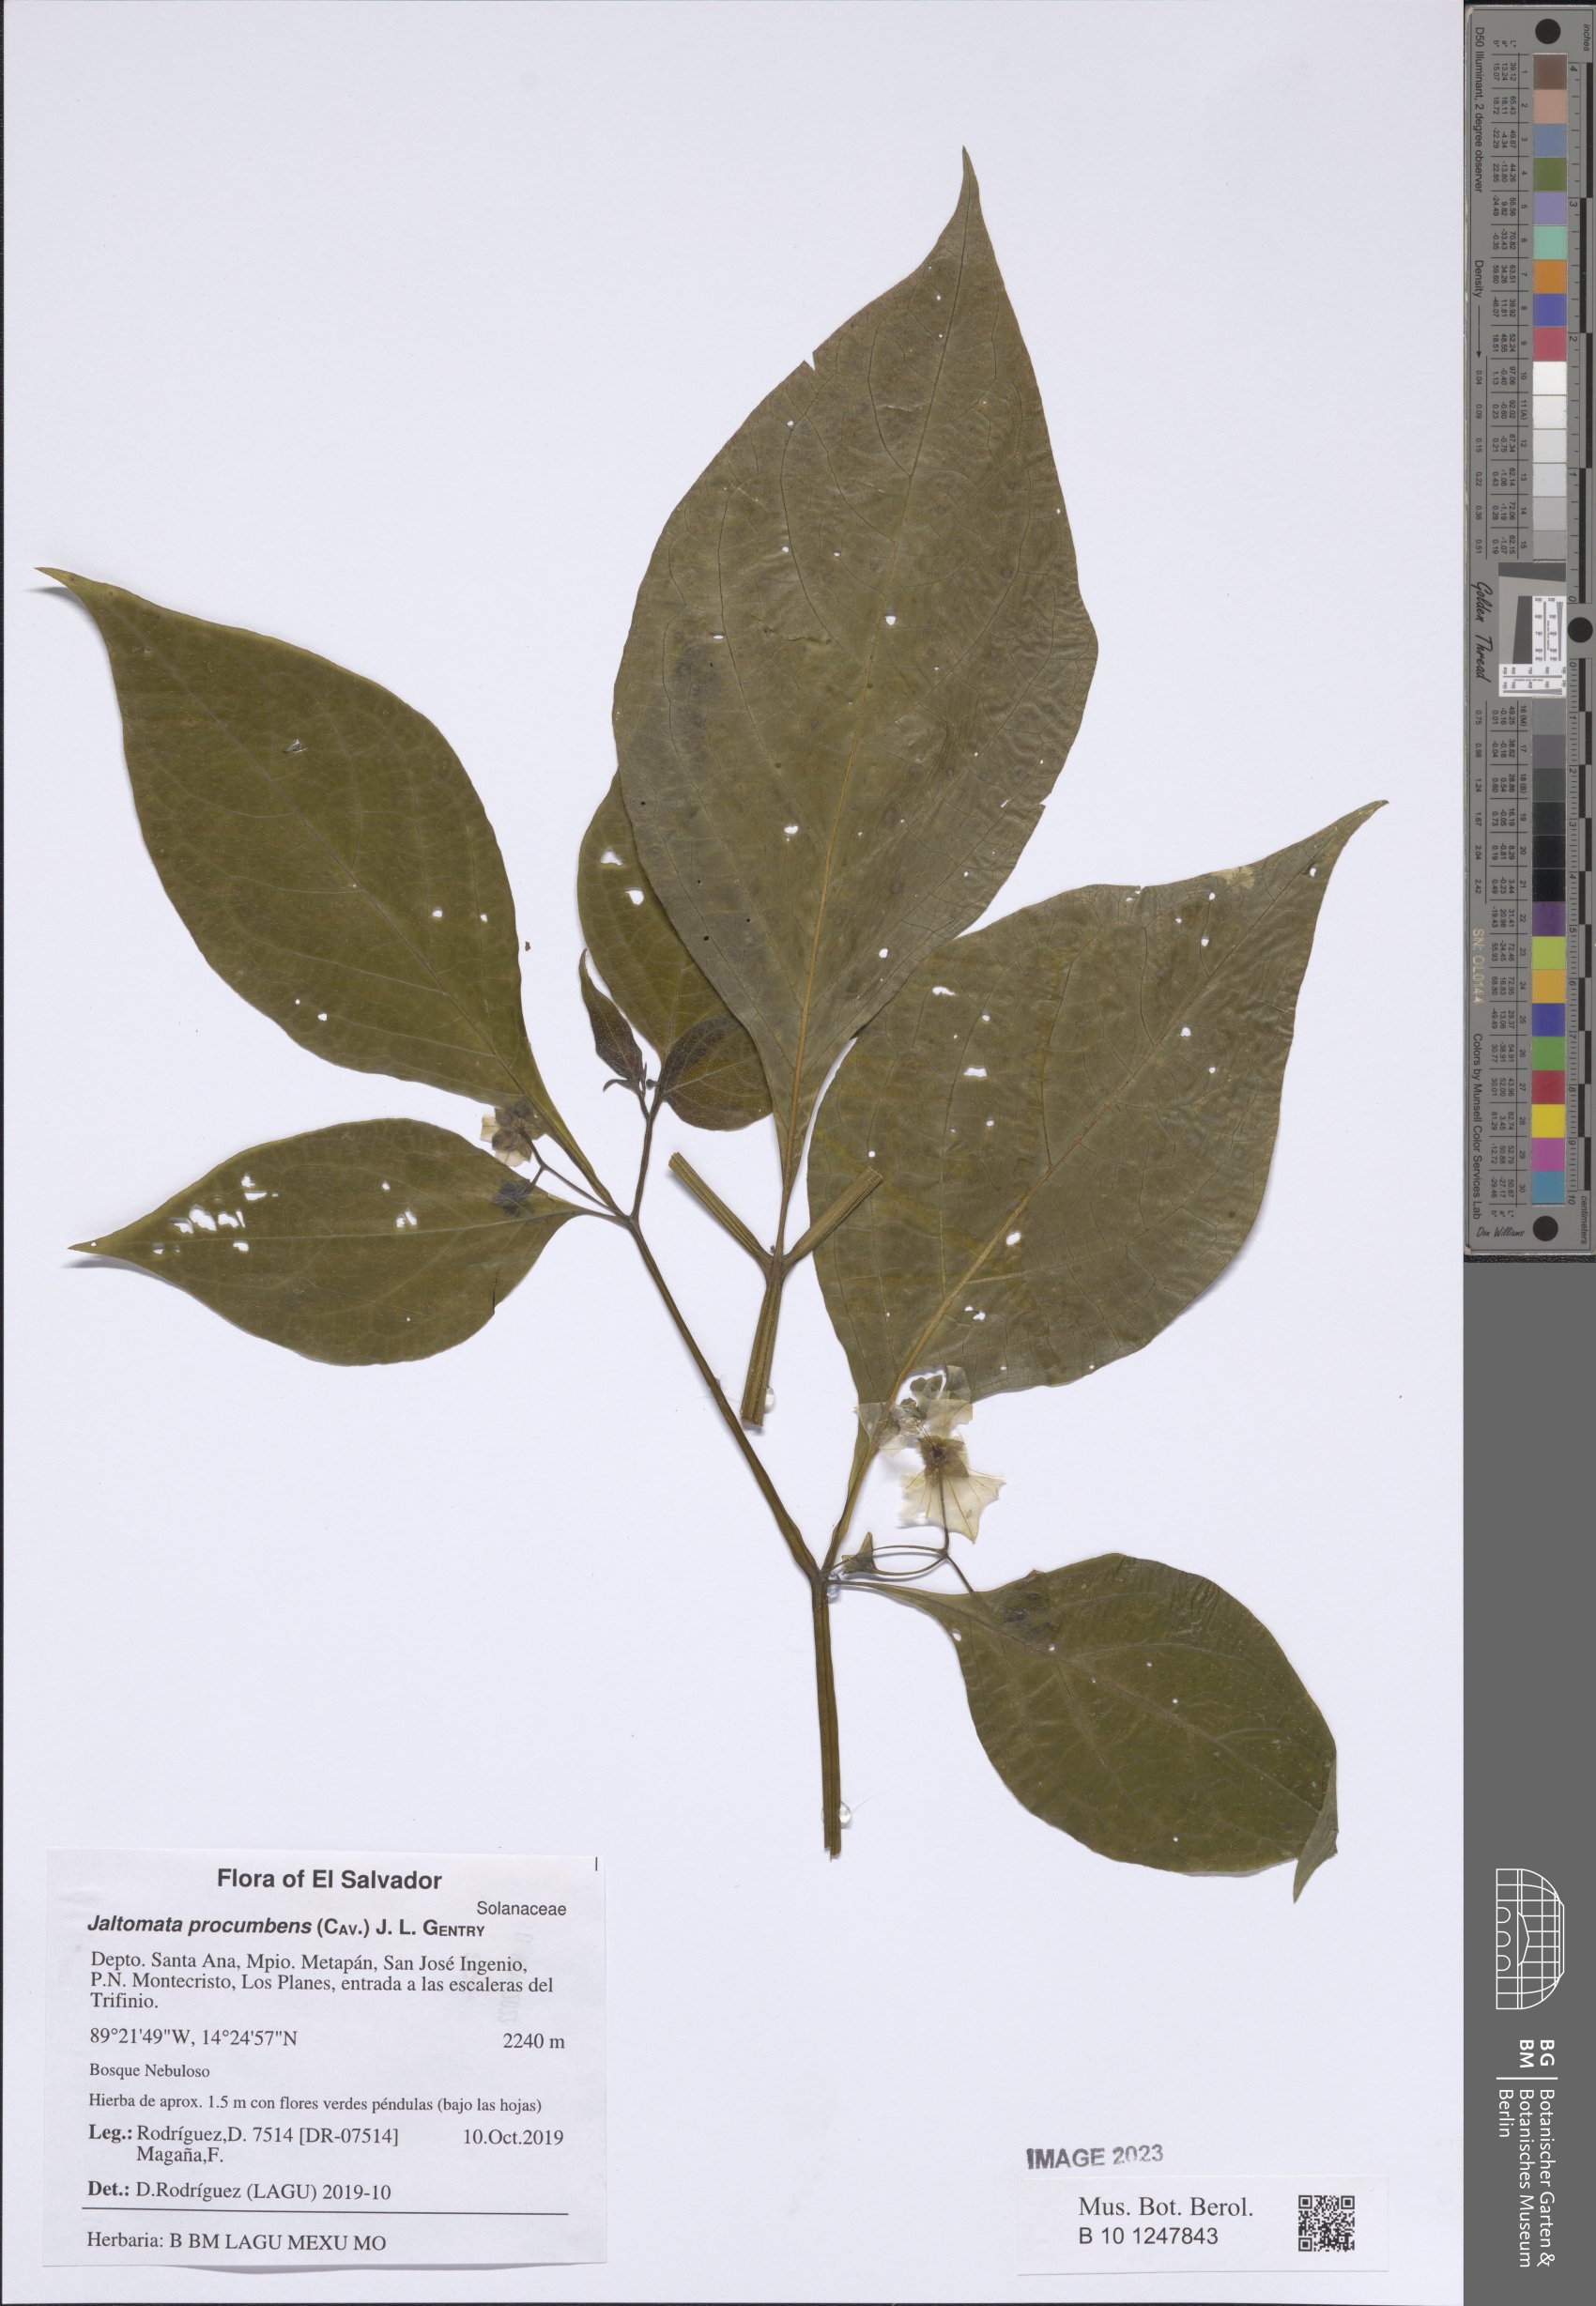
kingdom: Plantae
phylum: Tracheophyta
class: Magnoliopsida
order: Solanales
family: Solanaceae
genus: Jaltomata
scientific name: Jaltomata procumbens
